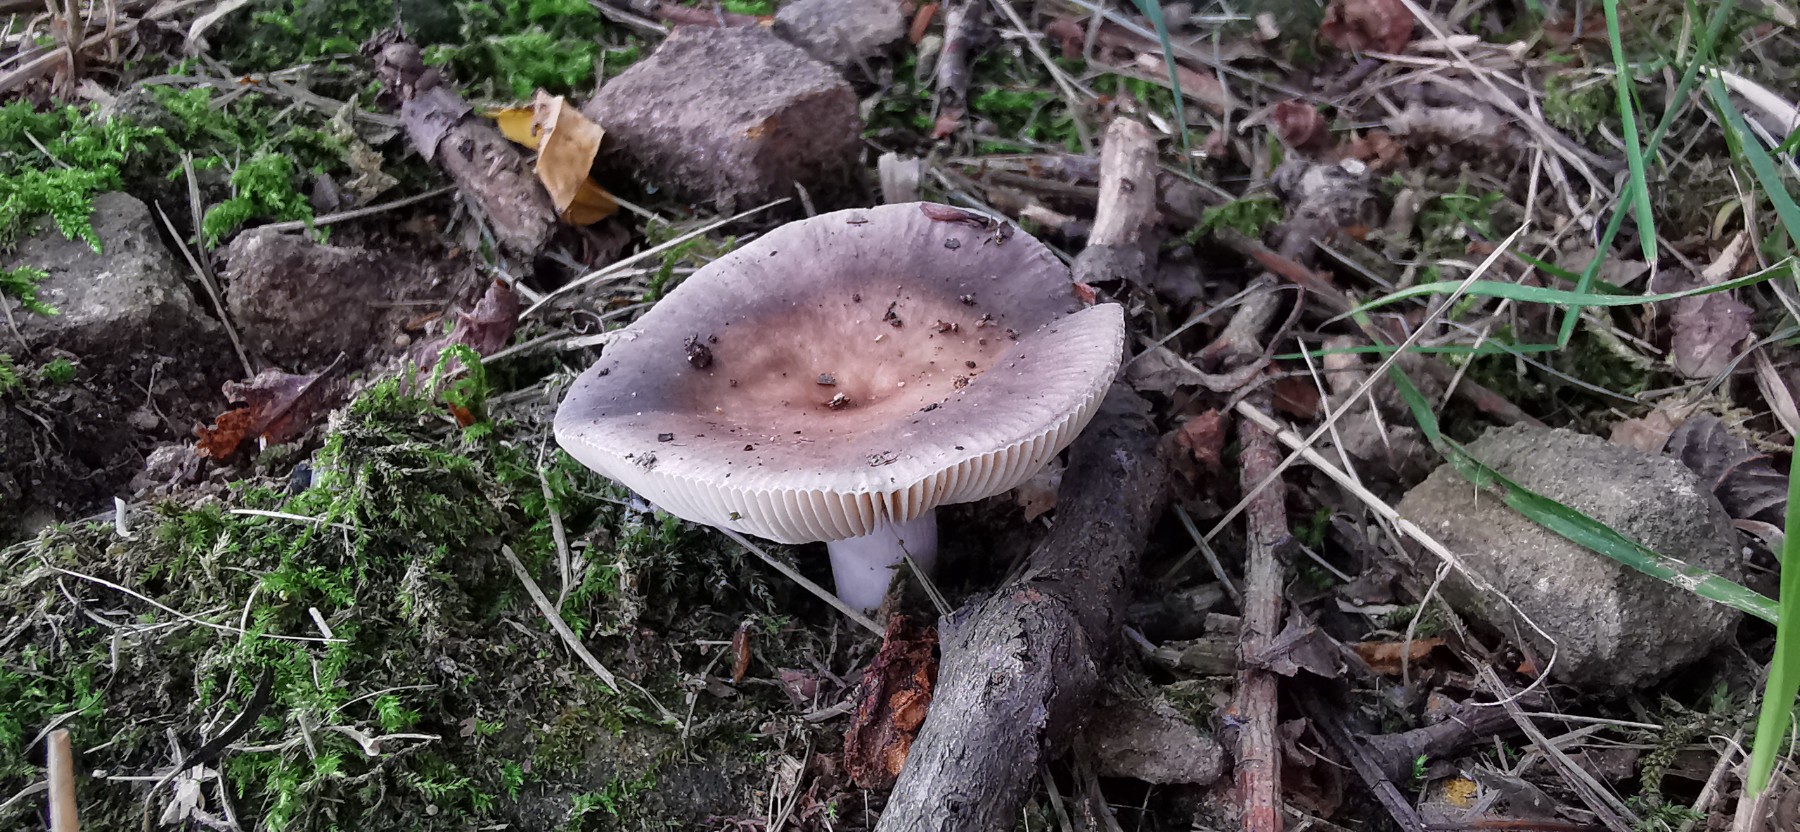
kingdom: Fungi
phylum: Basidiomycota
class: Agaricomycetes
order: Russulales
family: Russulaceae
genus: Russula
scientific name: Russula
